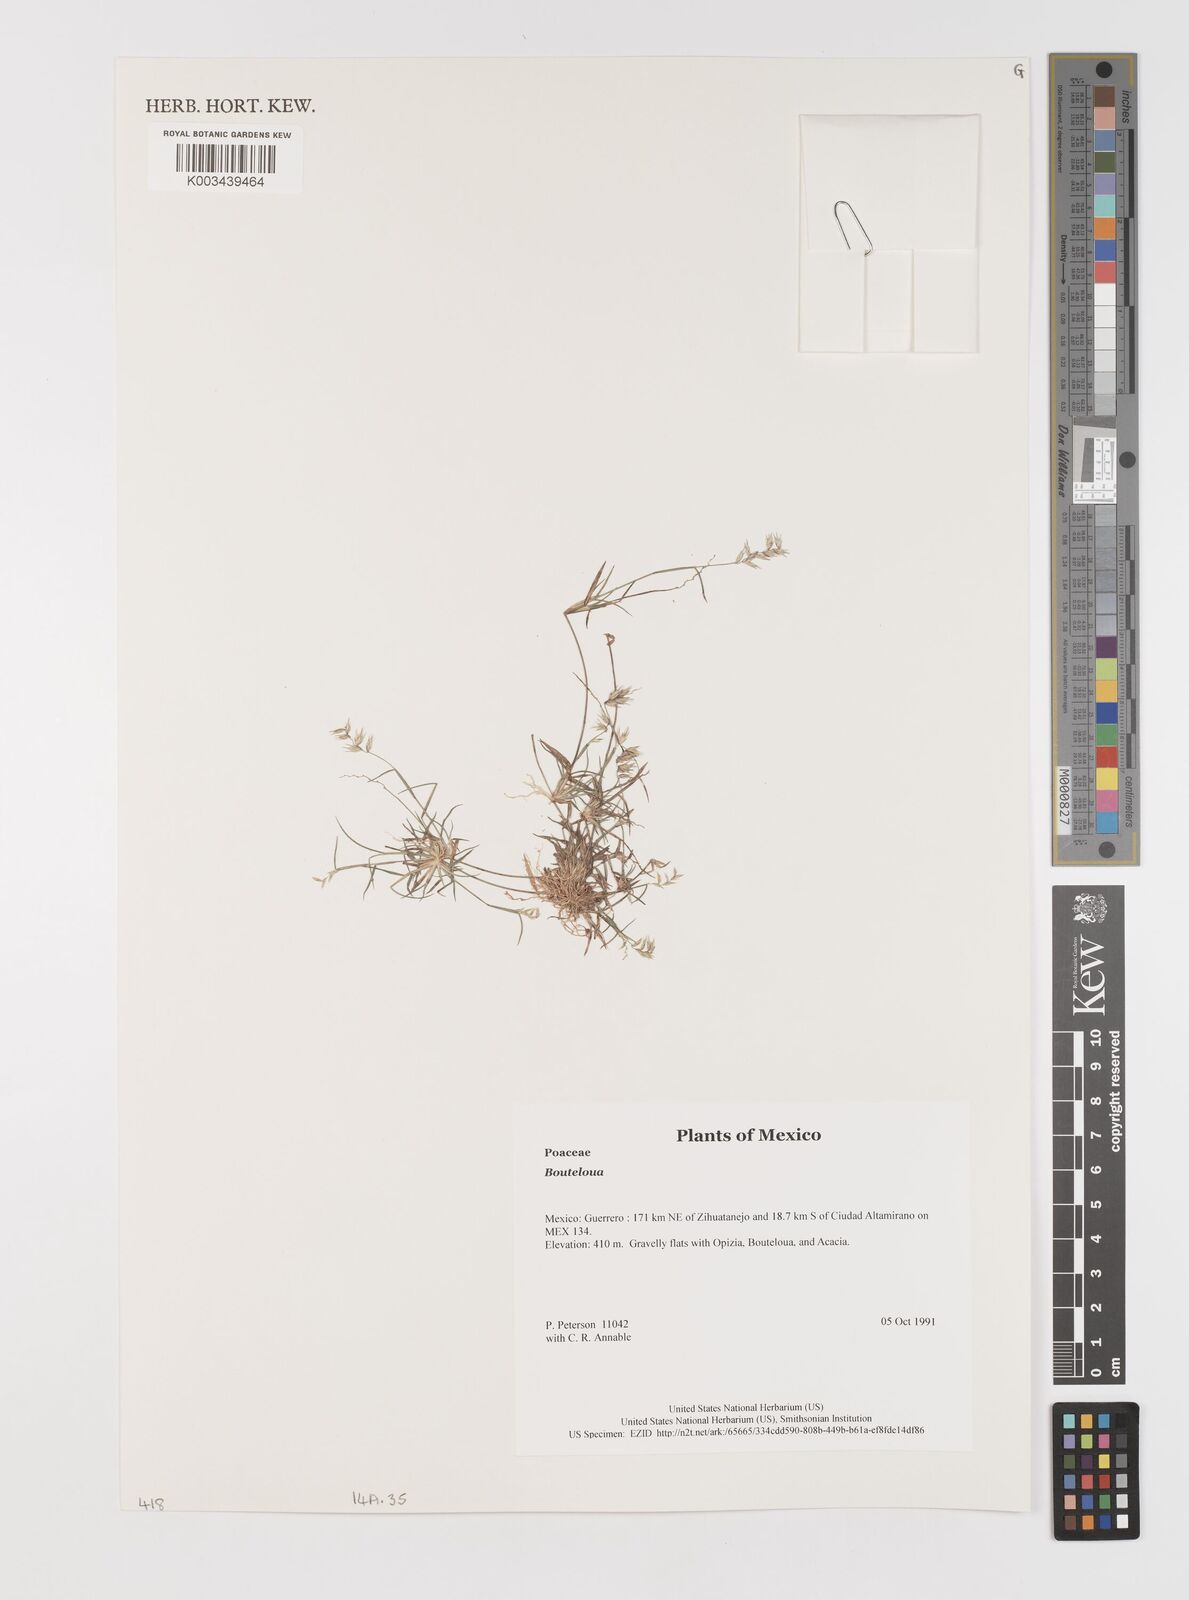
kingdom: Plantae
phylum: Tracheophyta
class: Liliopsida
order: Poales
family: Poaceae
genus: Bouteloua
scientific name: Bouteloua
